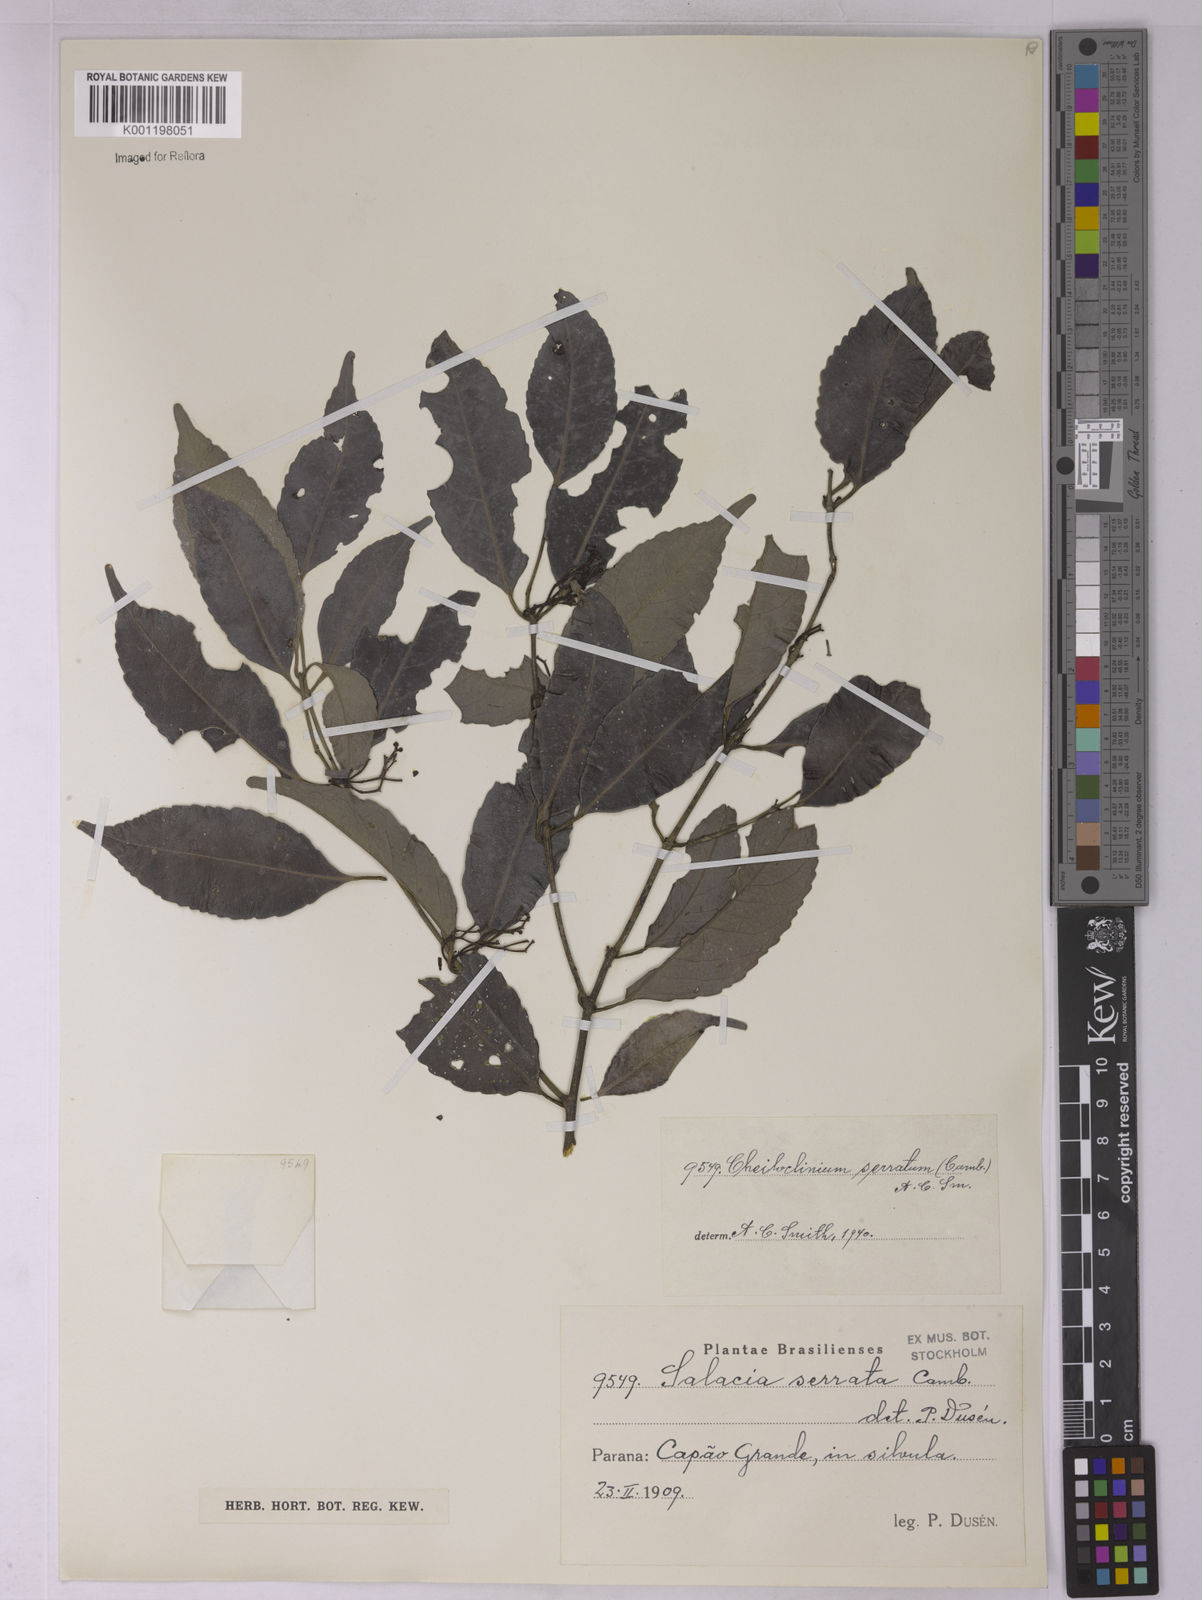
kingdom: Plantae
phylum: Tracheophyta
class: Magnoliopsida
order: Celastrales
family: Celastraceae
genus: Cheiloclinium
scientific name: Cheiloclinium serratum
